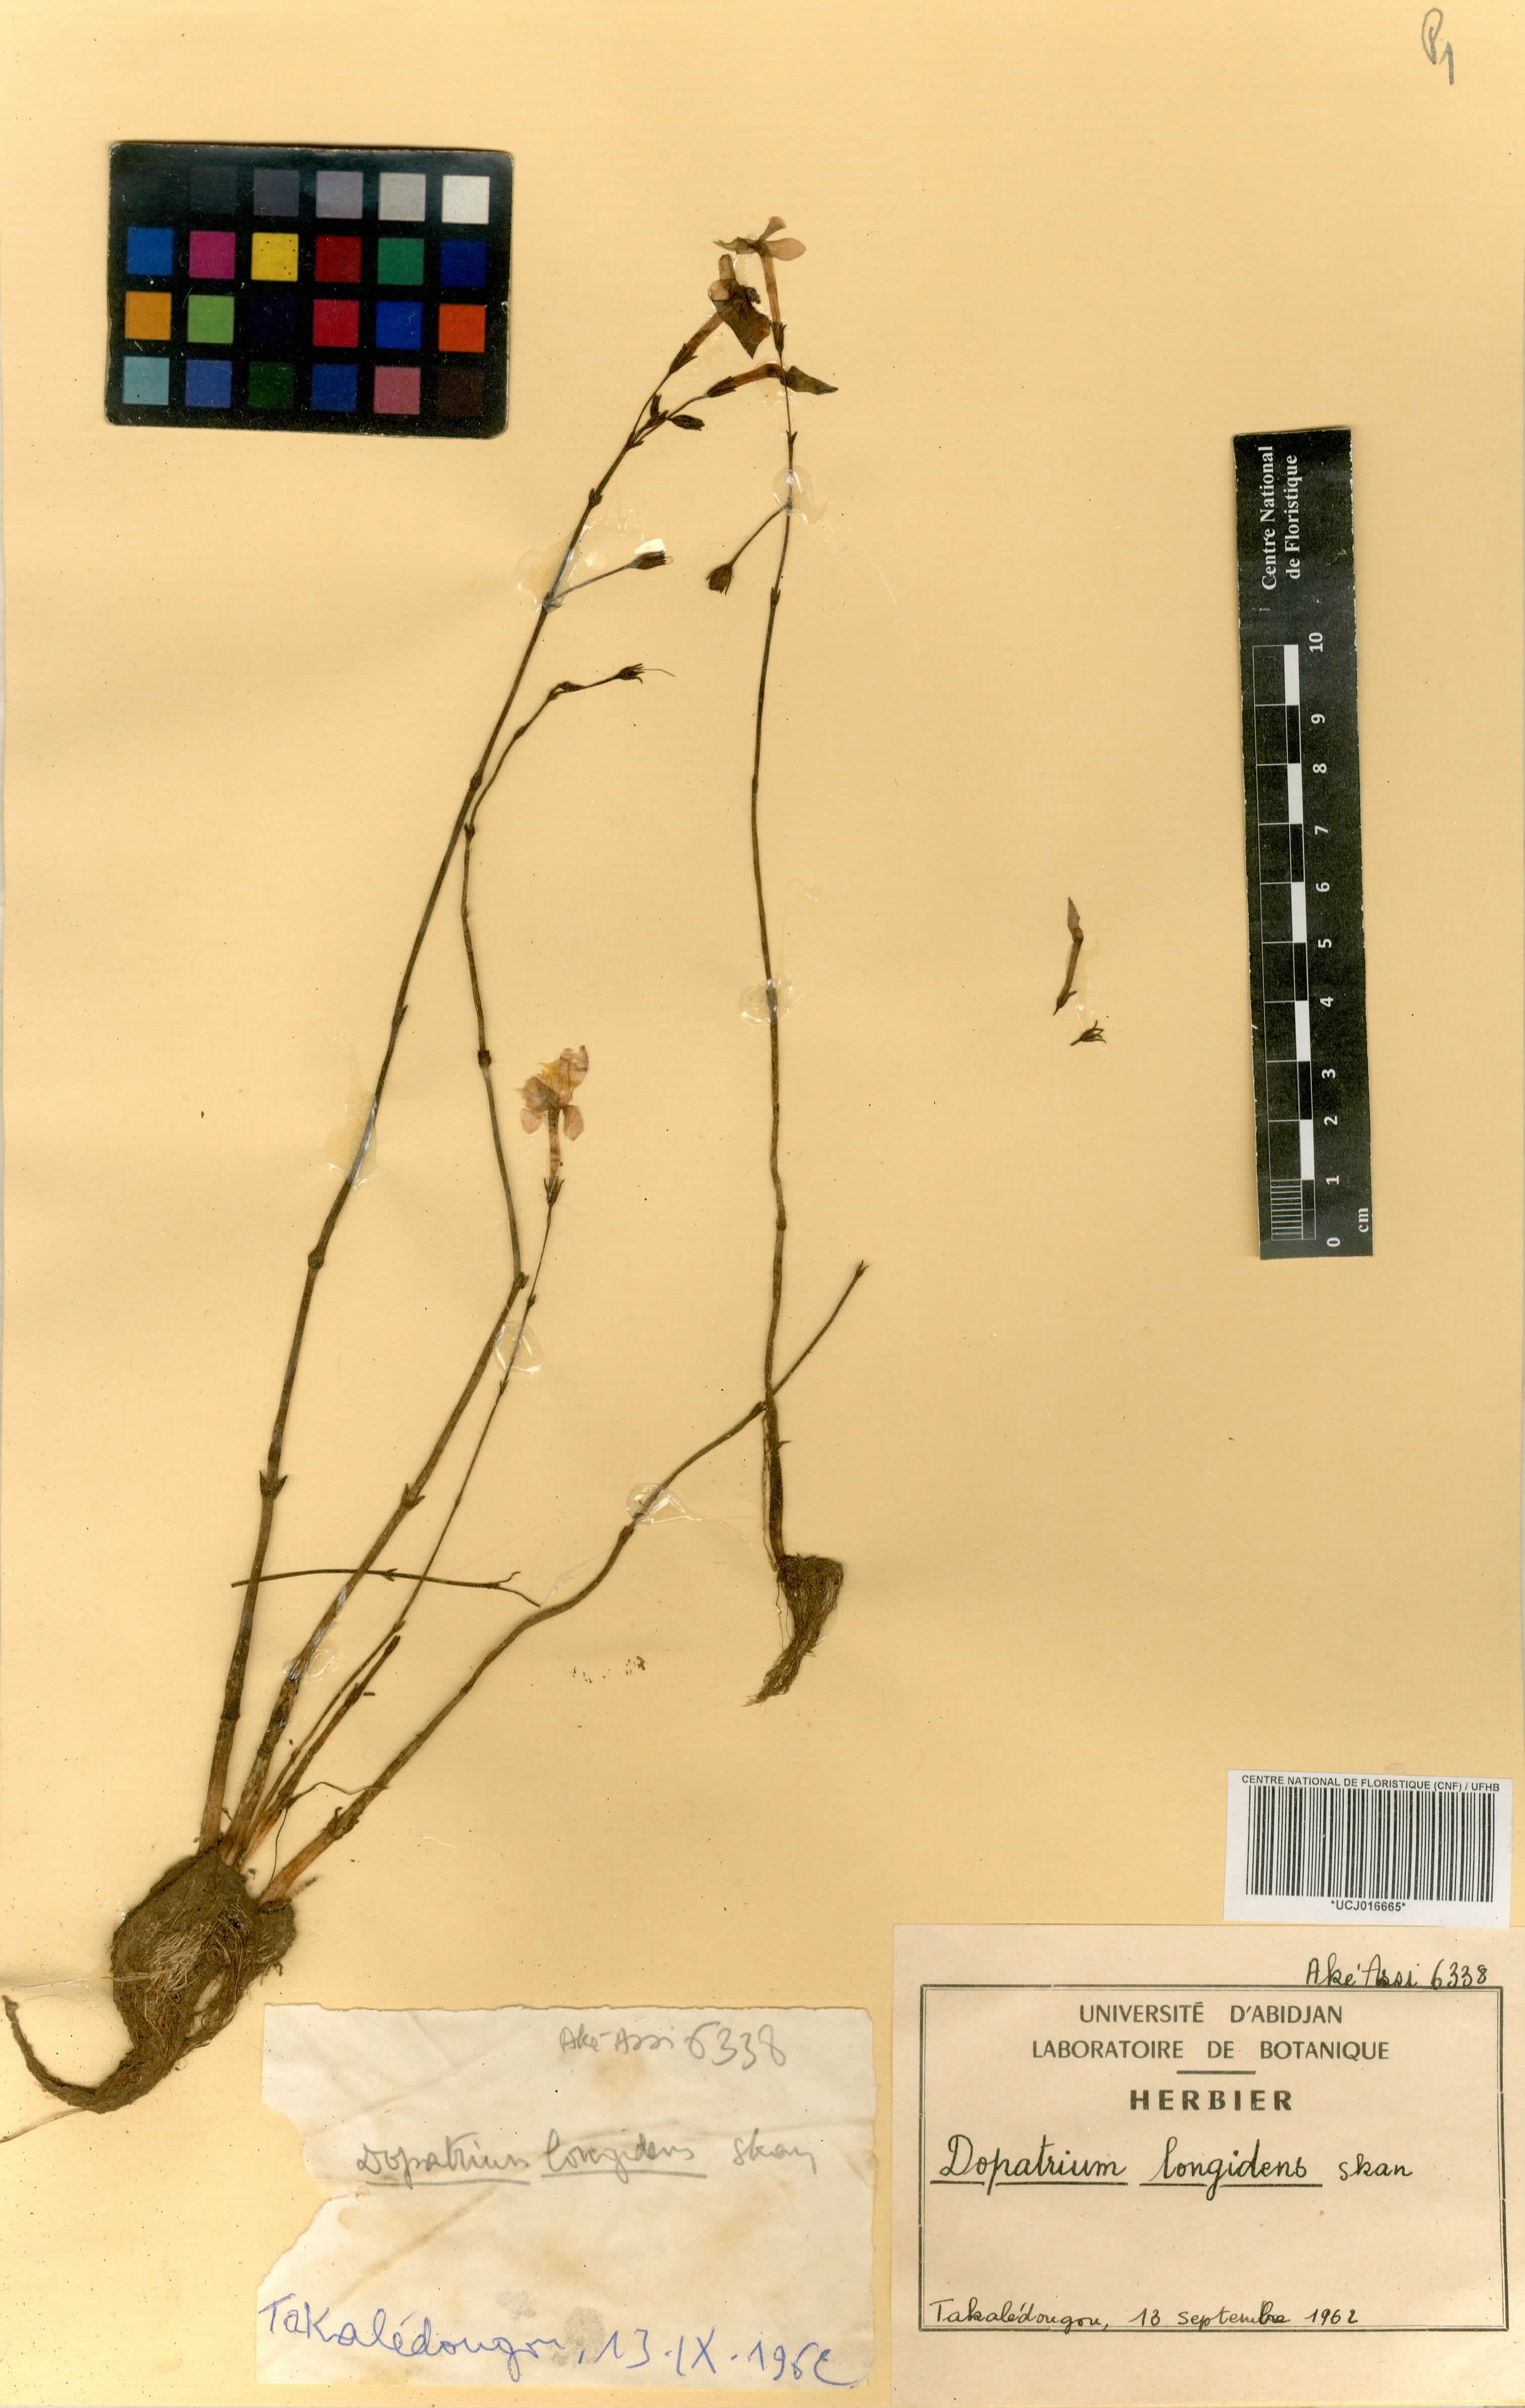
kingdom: Plantae
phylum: Tracheophyta
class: Magnoliopsida
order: Lamiales
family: Plantaginaceae
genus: Dopatrium
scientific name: Dopatrium longidens
